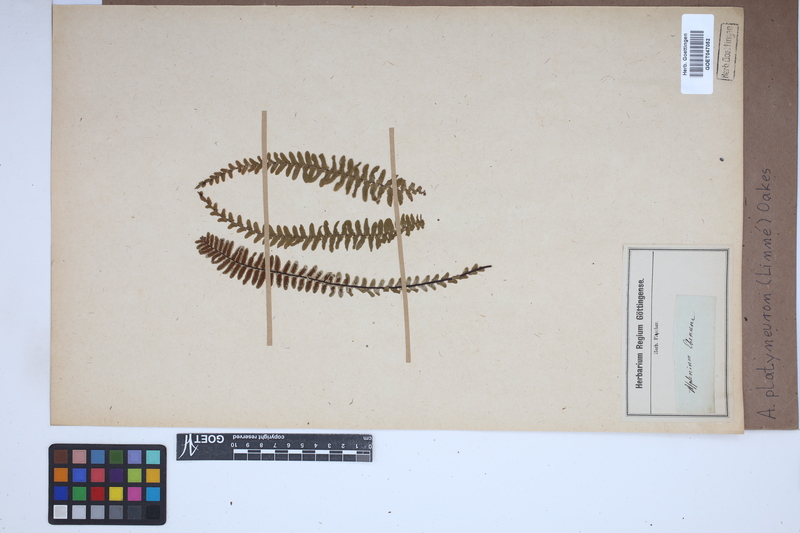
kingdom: Plantae
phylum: Tracheophyta
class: Polypodiopsida
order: Polypodiales
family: Aspleniaceae
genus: Asplenium
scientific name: Asplenium platyneuron
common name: Ebony spleenwort
